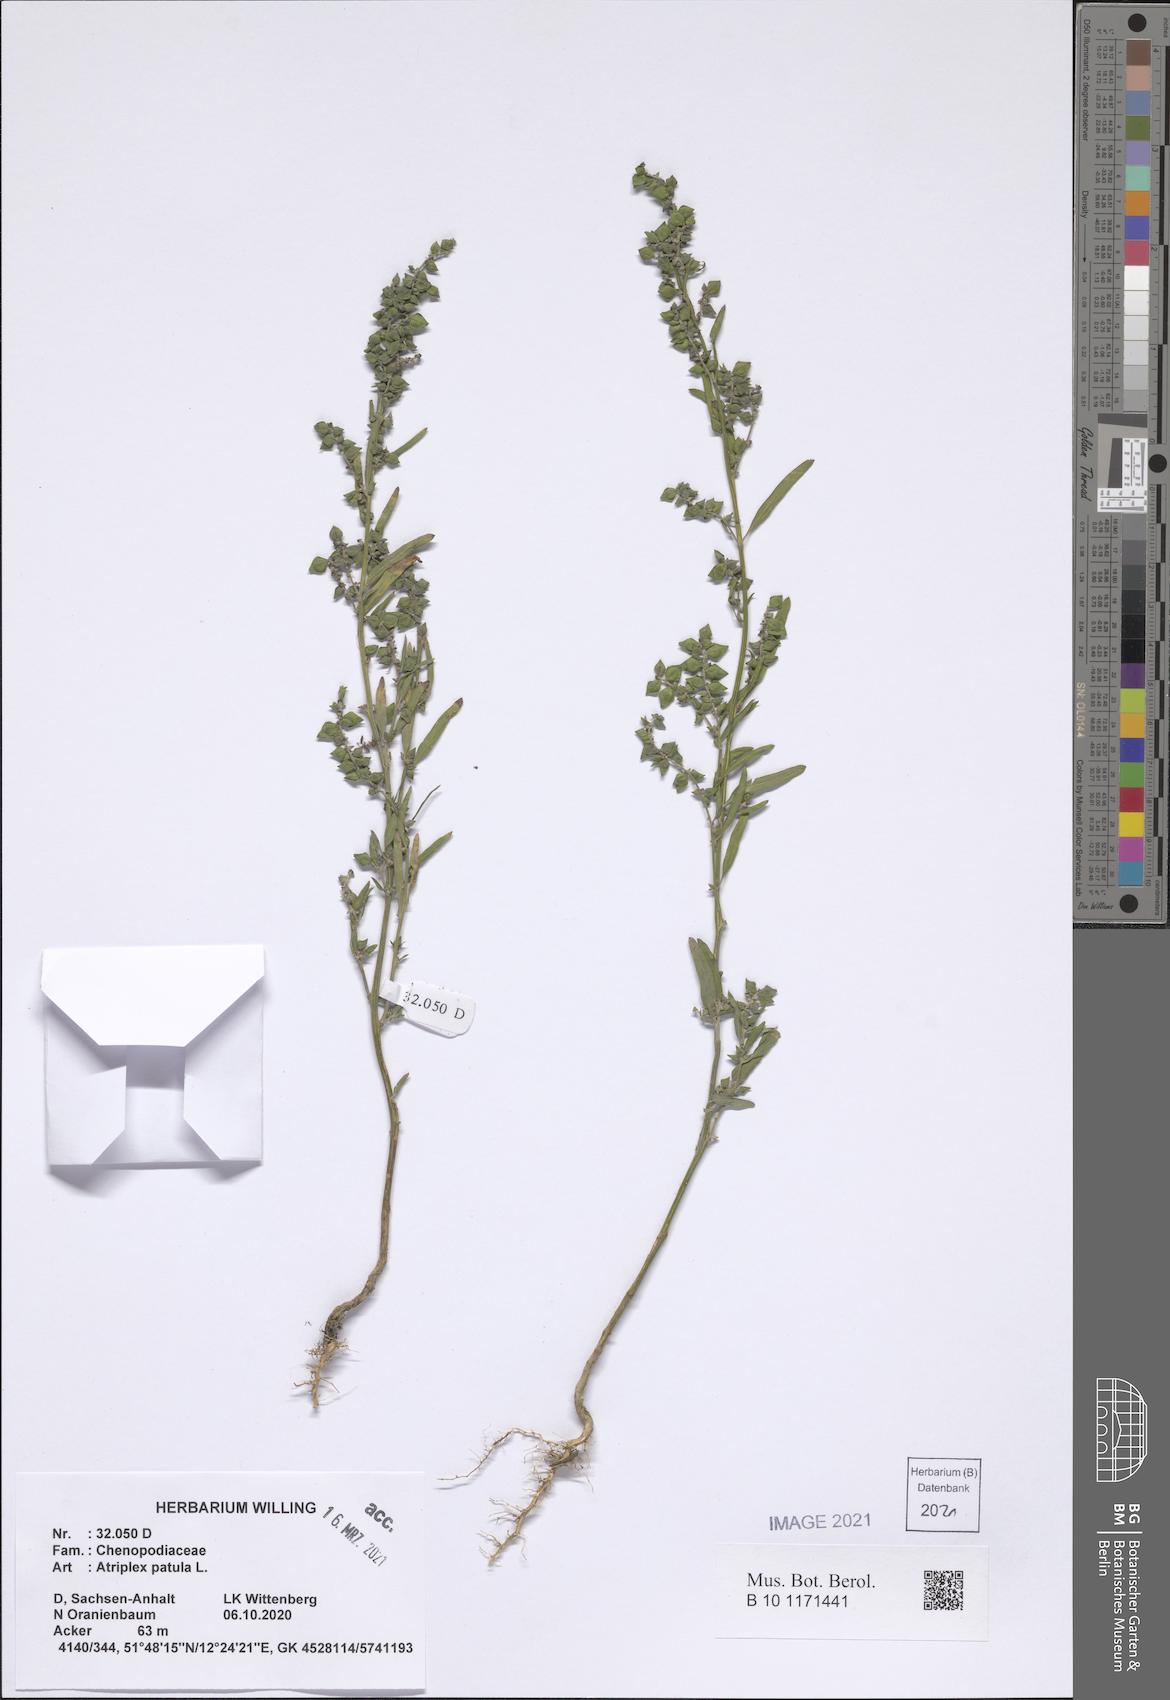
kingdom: Plantae
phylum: Tracheophyta
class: Magnoliopsida
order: Caryophyllales
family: Amaranthaceae
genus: Atriplex
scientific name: Atriplex patula
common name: Common orache
